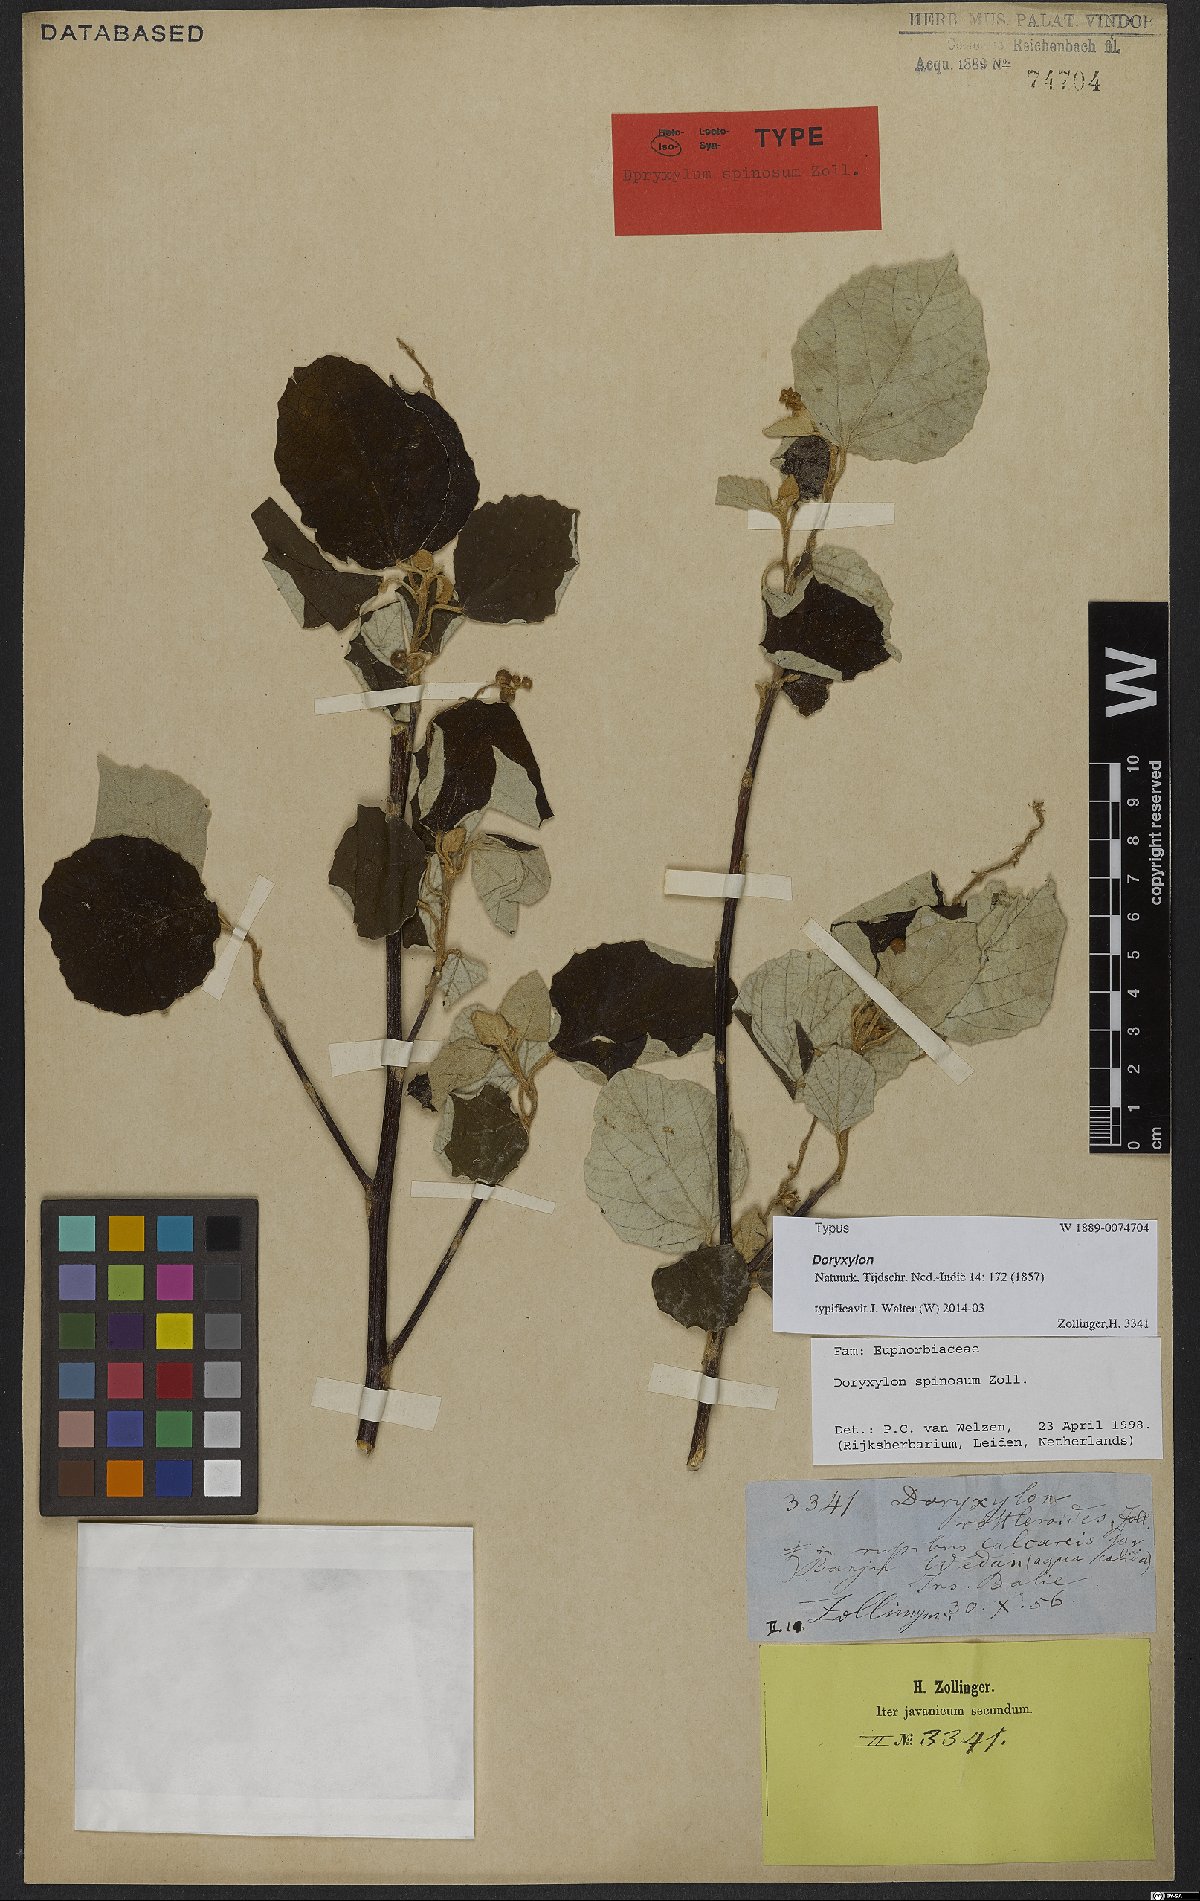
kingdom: Plantae
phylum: Tracheophyta
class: Magnoliopsida
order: Malpighiales
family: Euphorbiaceae
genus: Doryxylon
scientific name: Doryxylon spinosum
